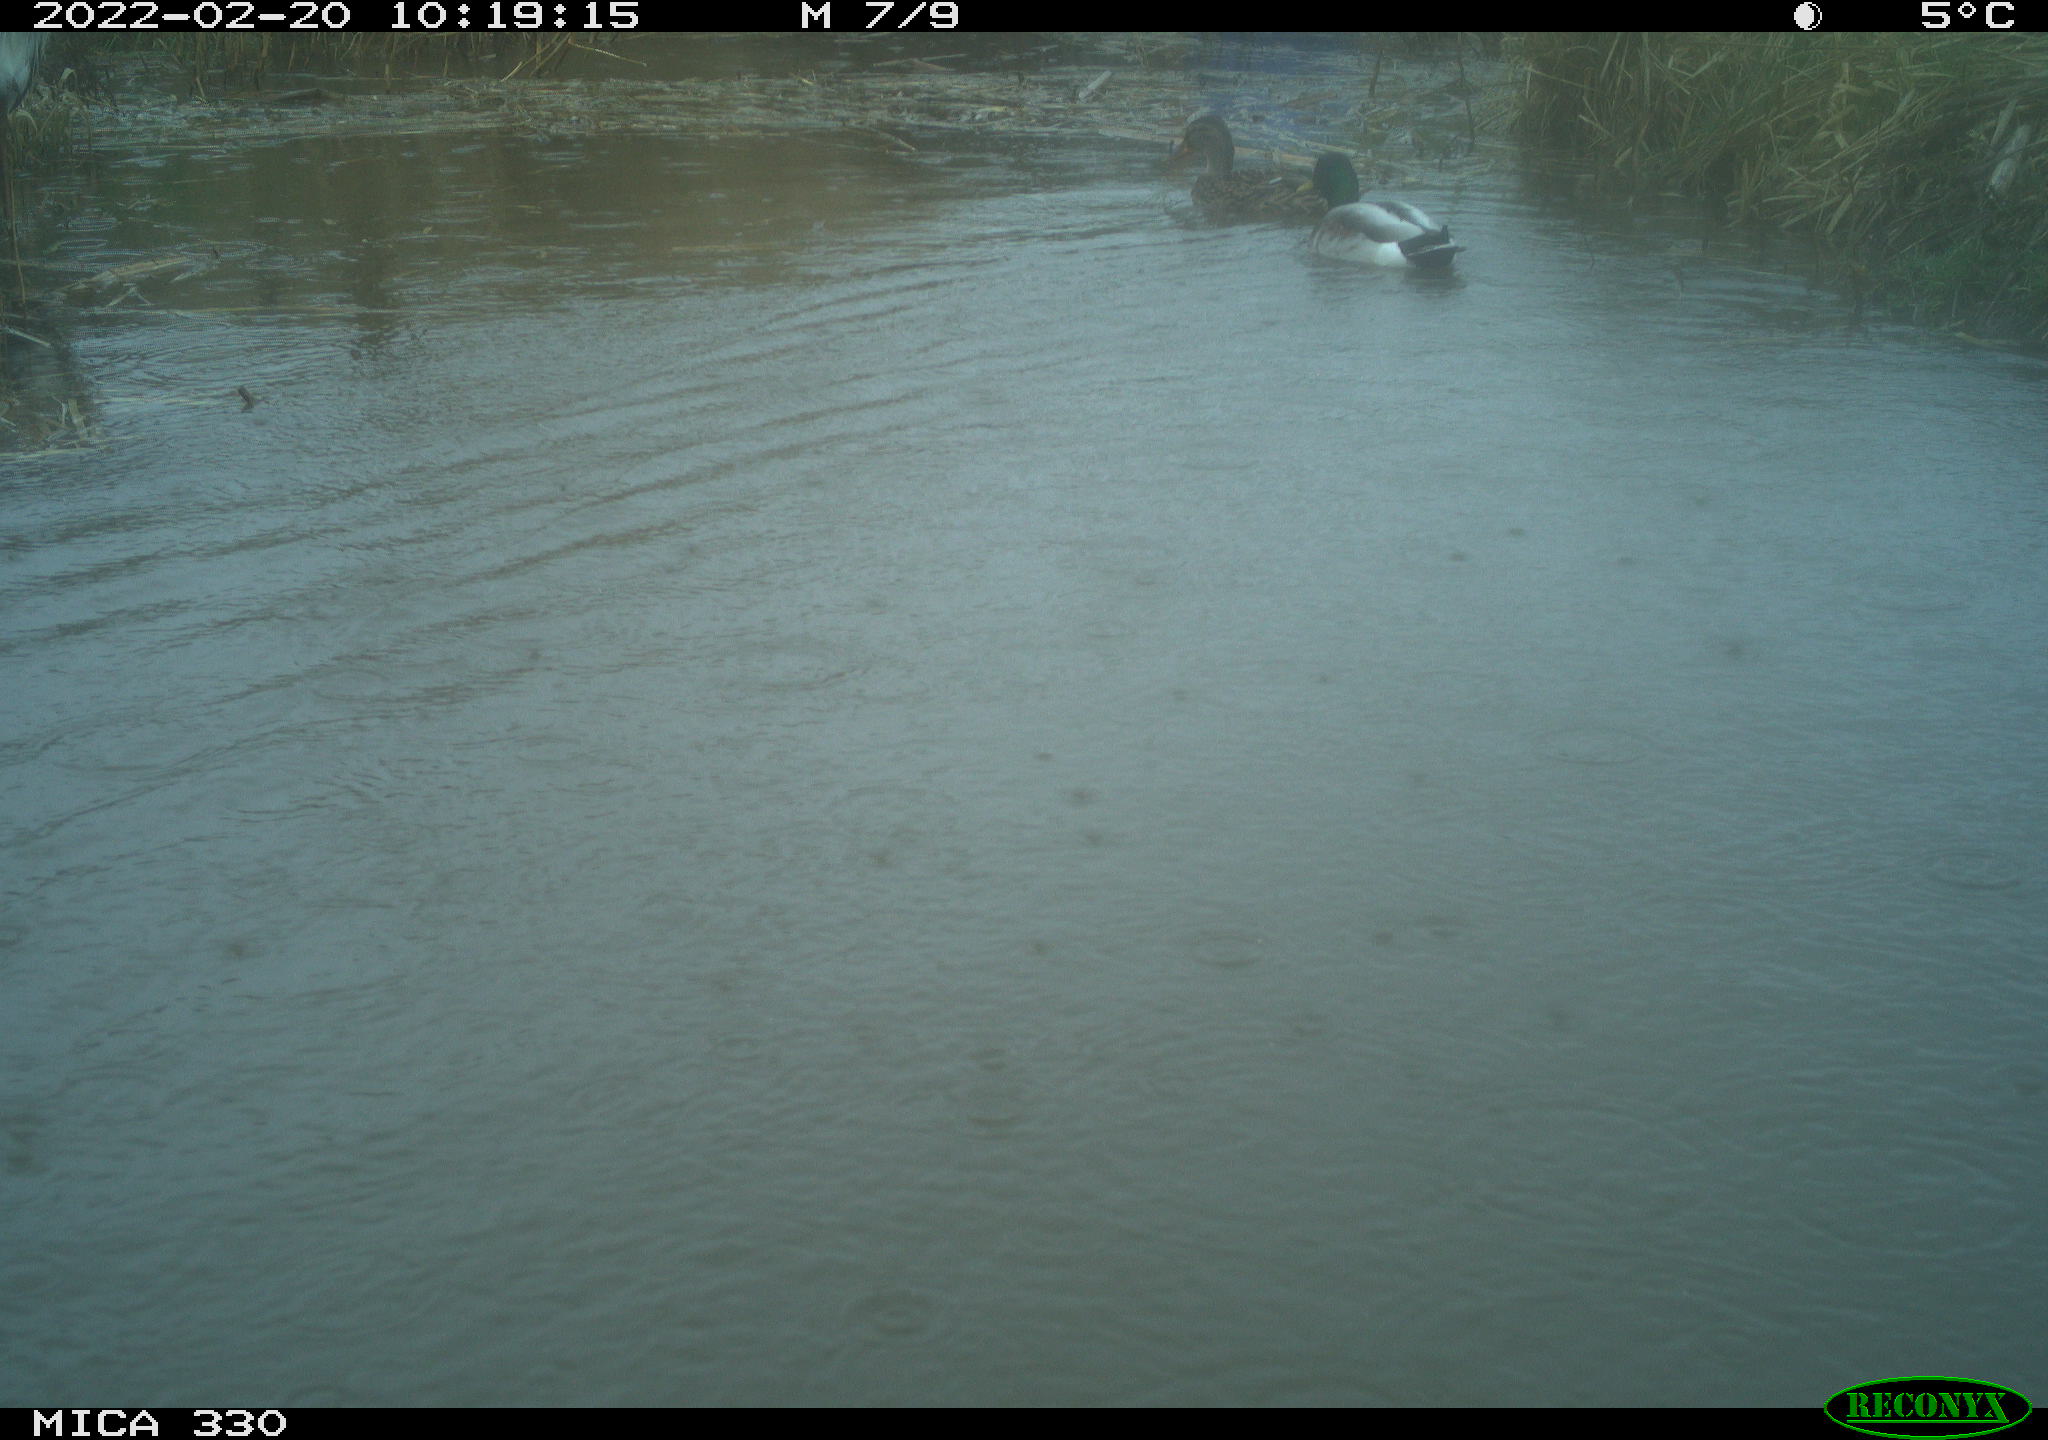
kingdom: Animalia
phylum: Chordata
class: Aves
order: Anseriformes
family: Anatidae
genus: Anas
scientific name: Anas platyrhynchos
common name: Mallard
